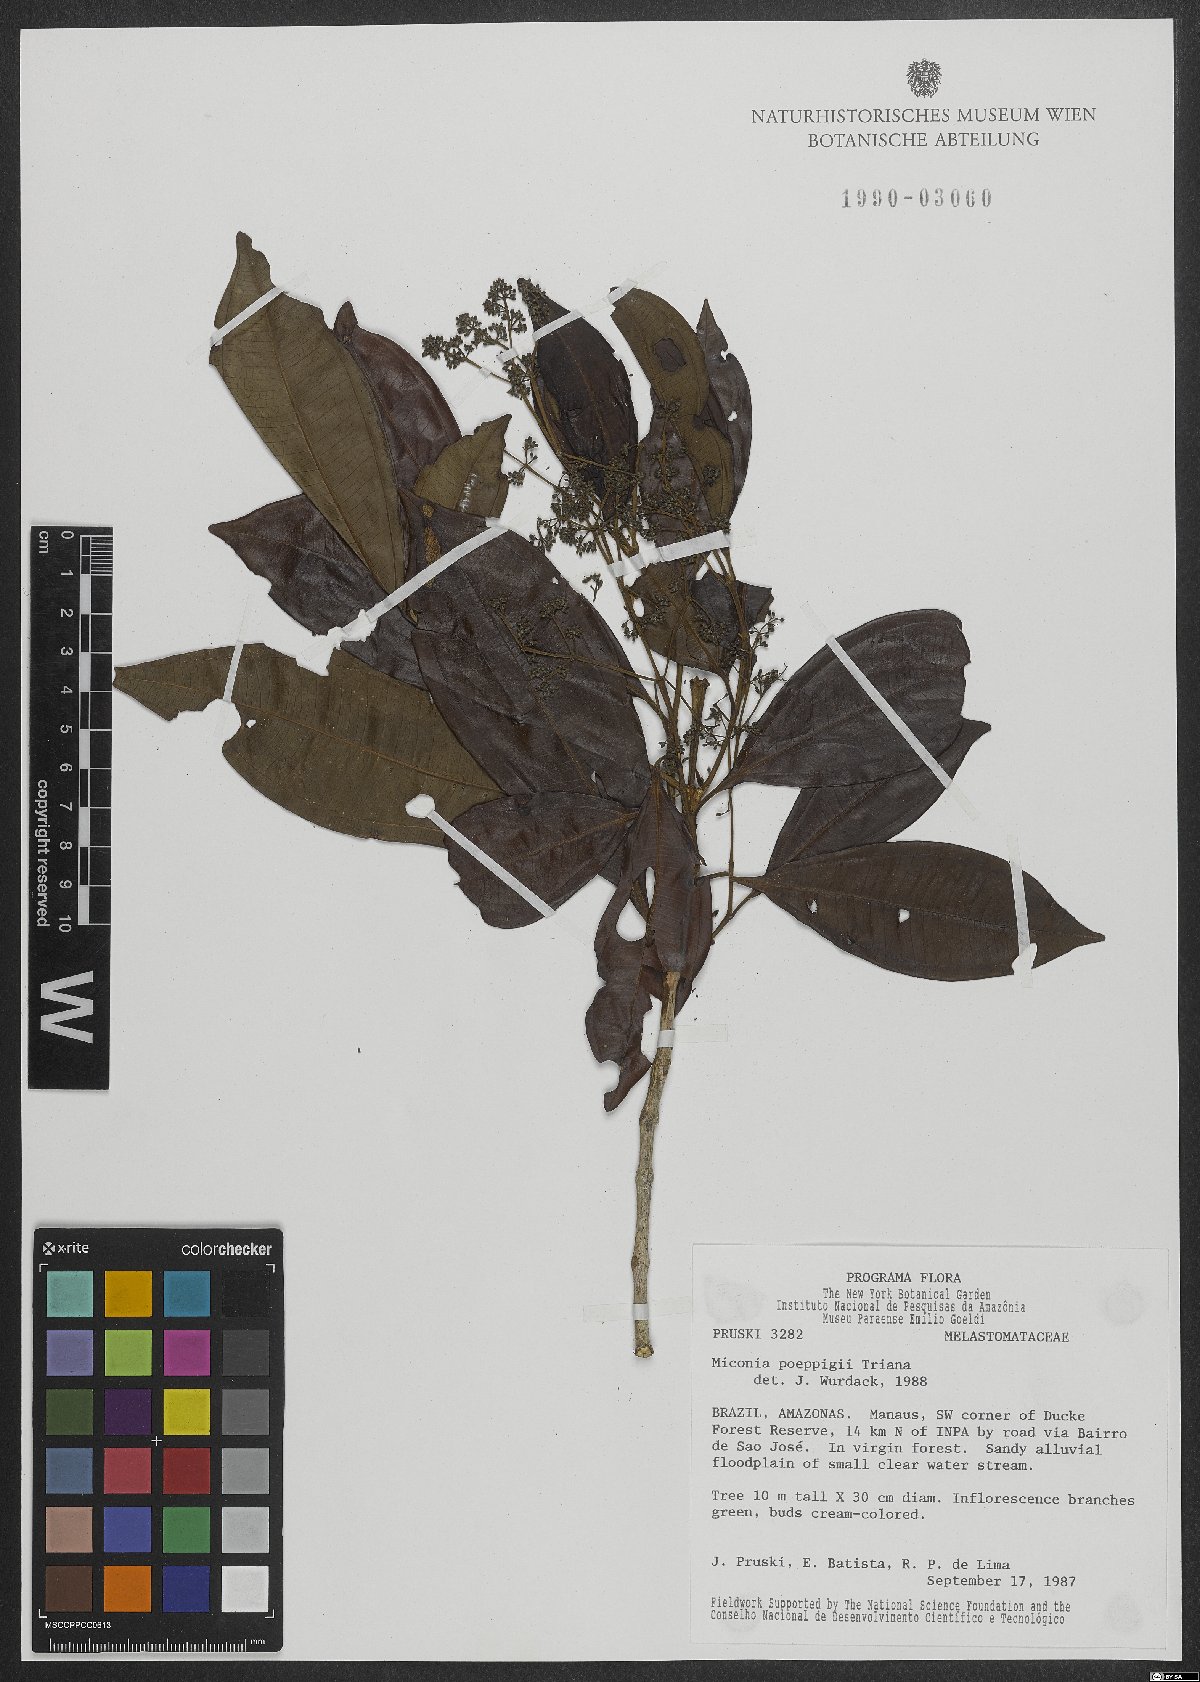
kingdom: Plantae
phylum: Tracheophyta
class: Magnoliopsida
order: Myrtales
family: Melastomataceae
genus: Miconia
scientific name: Miconia poeppigii
